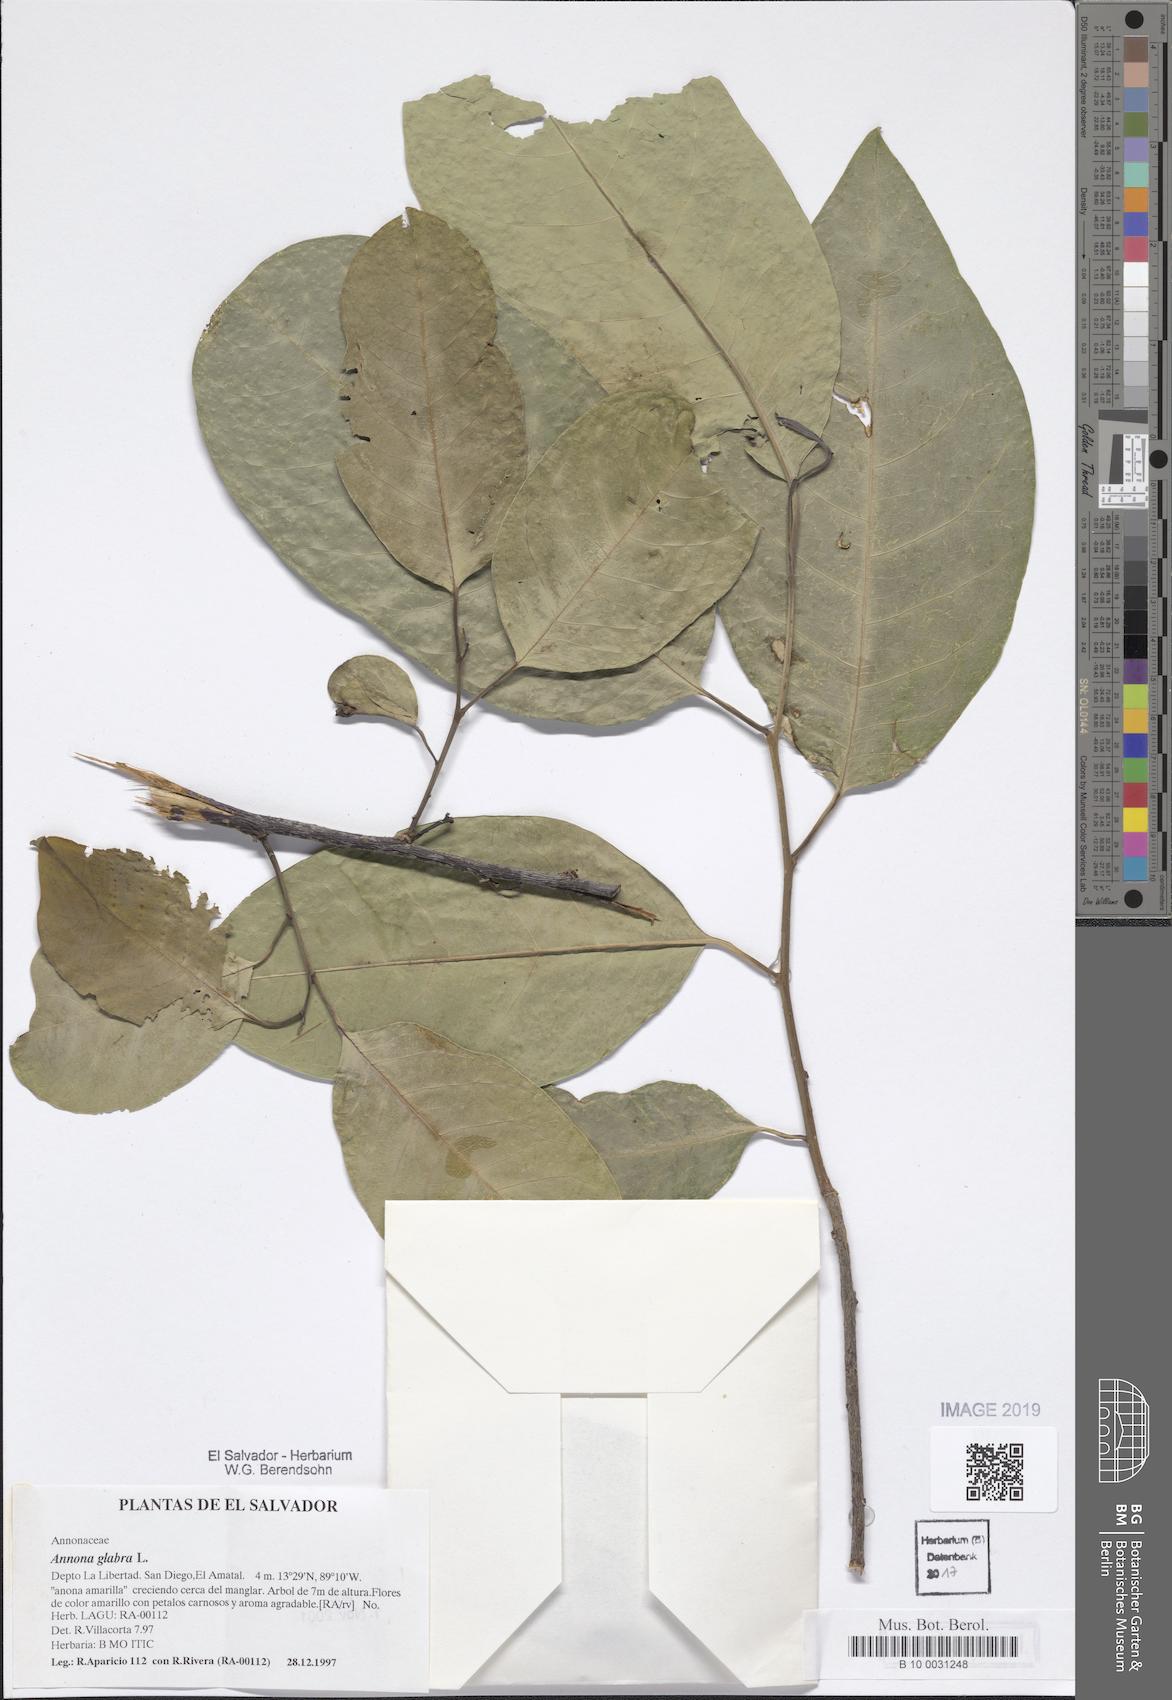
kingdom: Plantae
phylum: Tracheophyta
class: Magnoliopsida
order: Magnoliales
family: Annonaceae
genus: Annona
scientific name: Annona glabra
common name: Monkey apple
